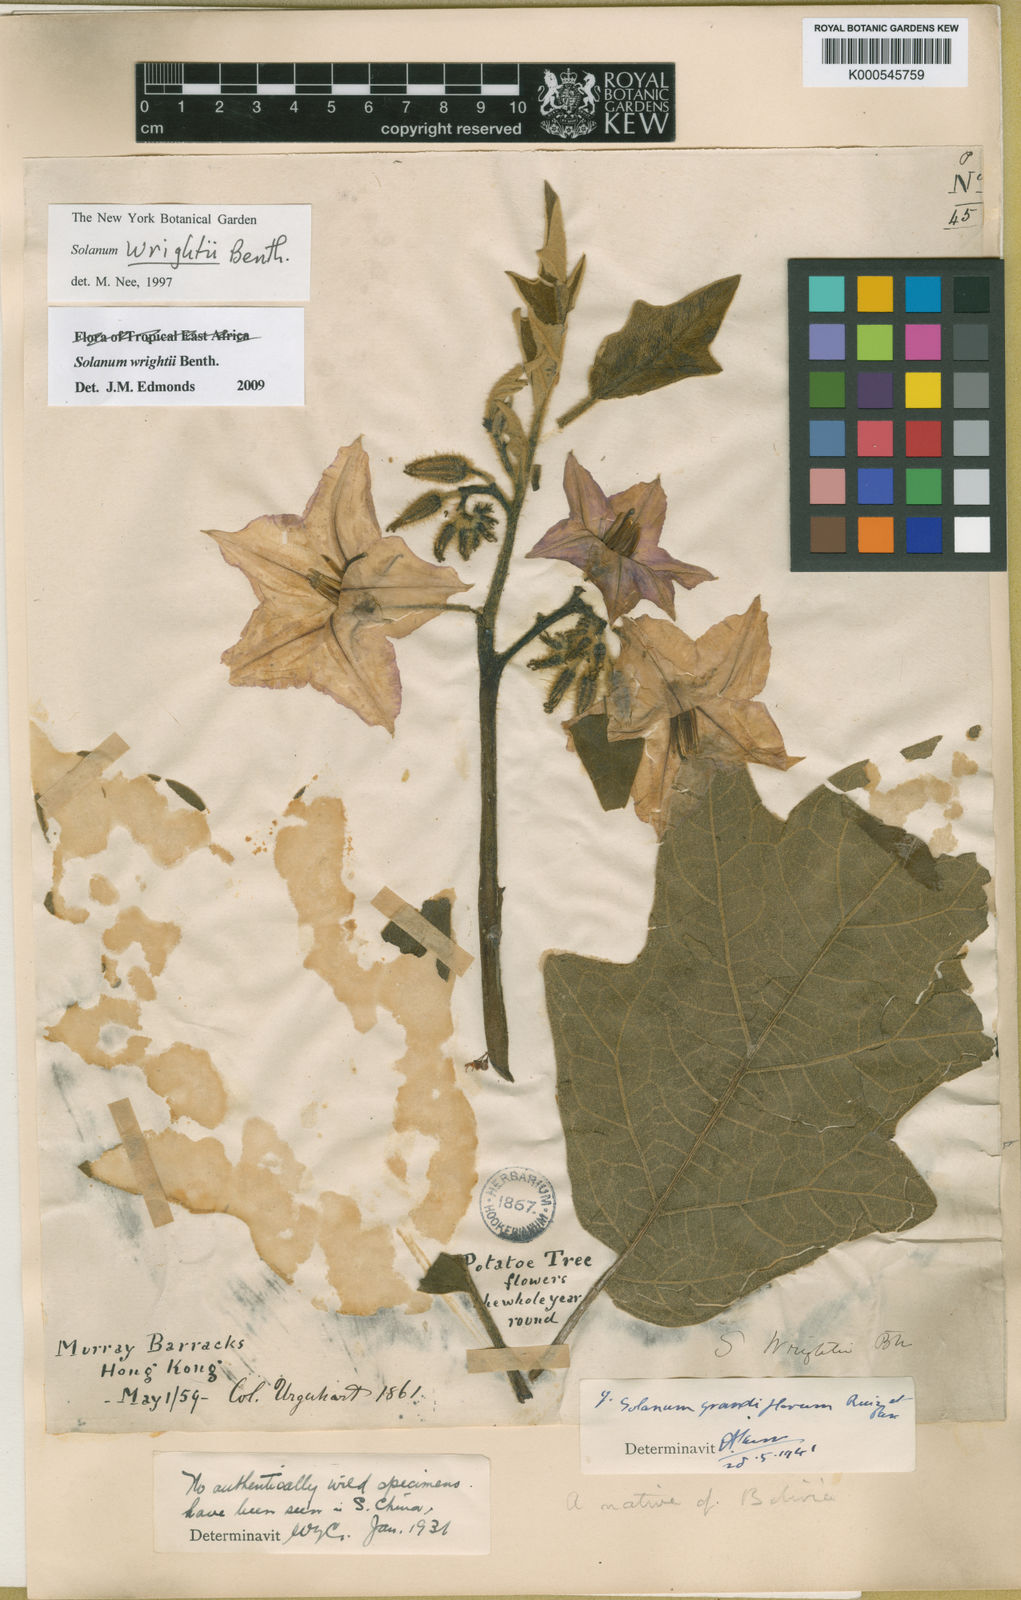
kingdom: Plantae
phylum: Tracheophyta
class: Magnoliopsida
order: Solanales
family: Solanaceae
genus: Solanum
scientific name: Solanum wrightii
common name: Brazilian potato-tree
